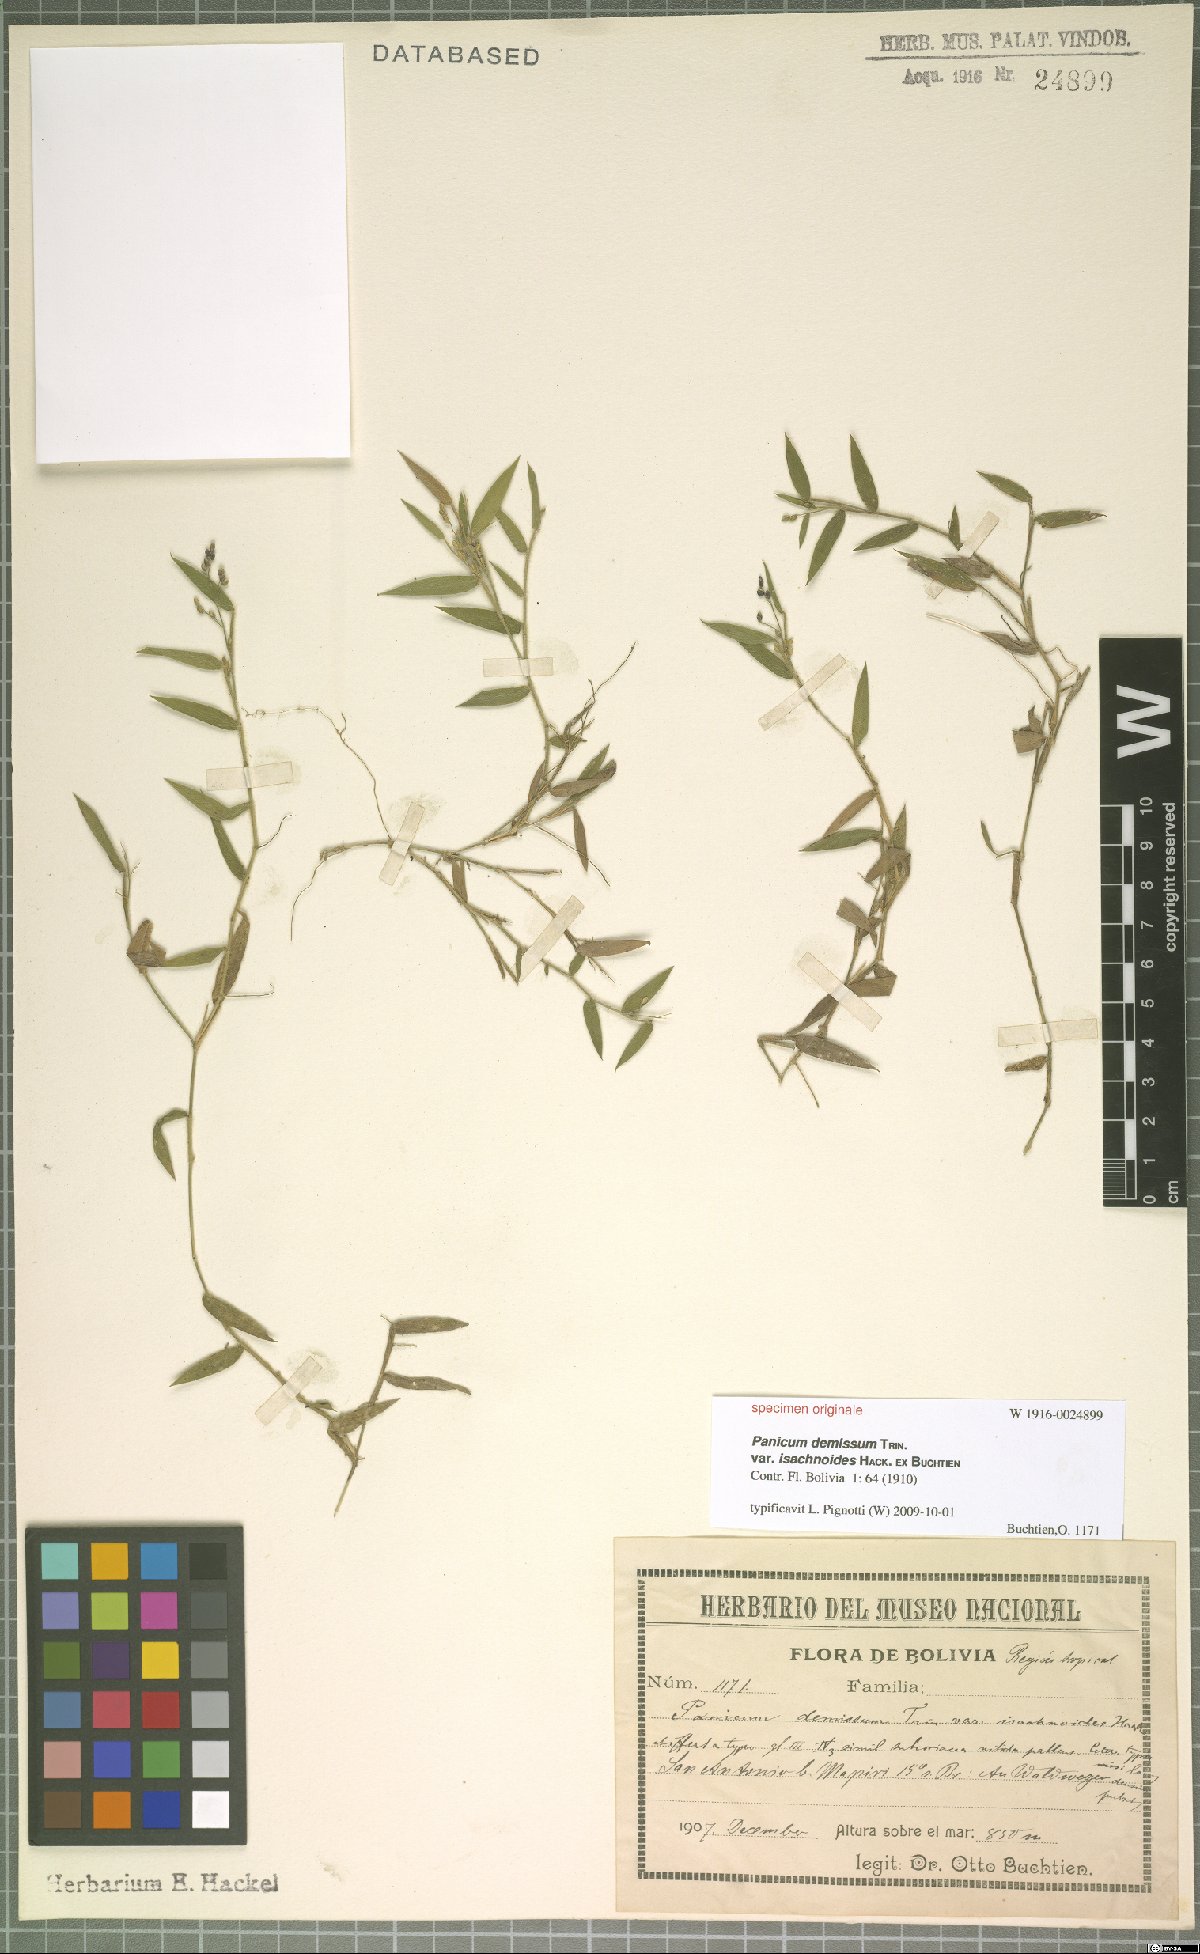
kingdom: Plantae
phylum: Tracheophyta
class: Liliopsida
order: Poales
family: Poaceae
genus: Dichanthelium
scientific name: Dichanthelium sabulorum
